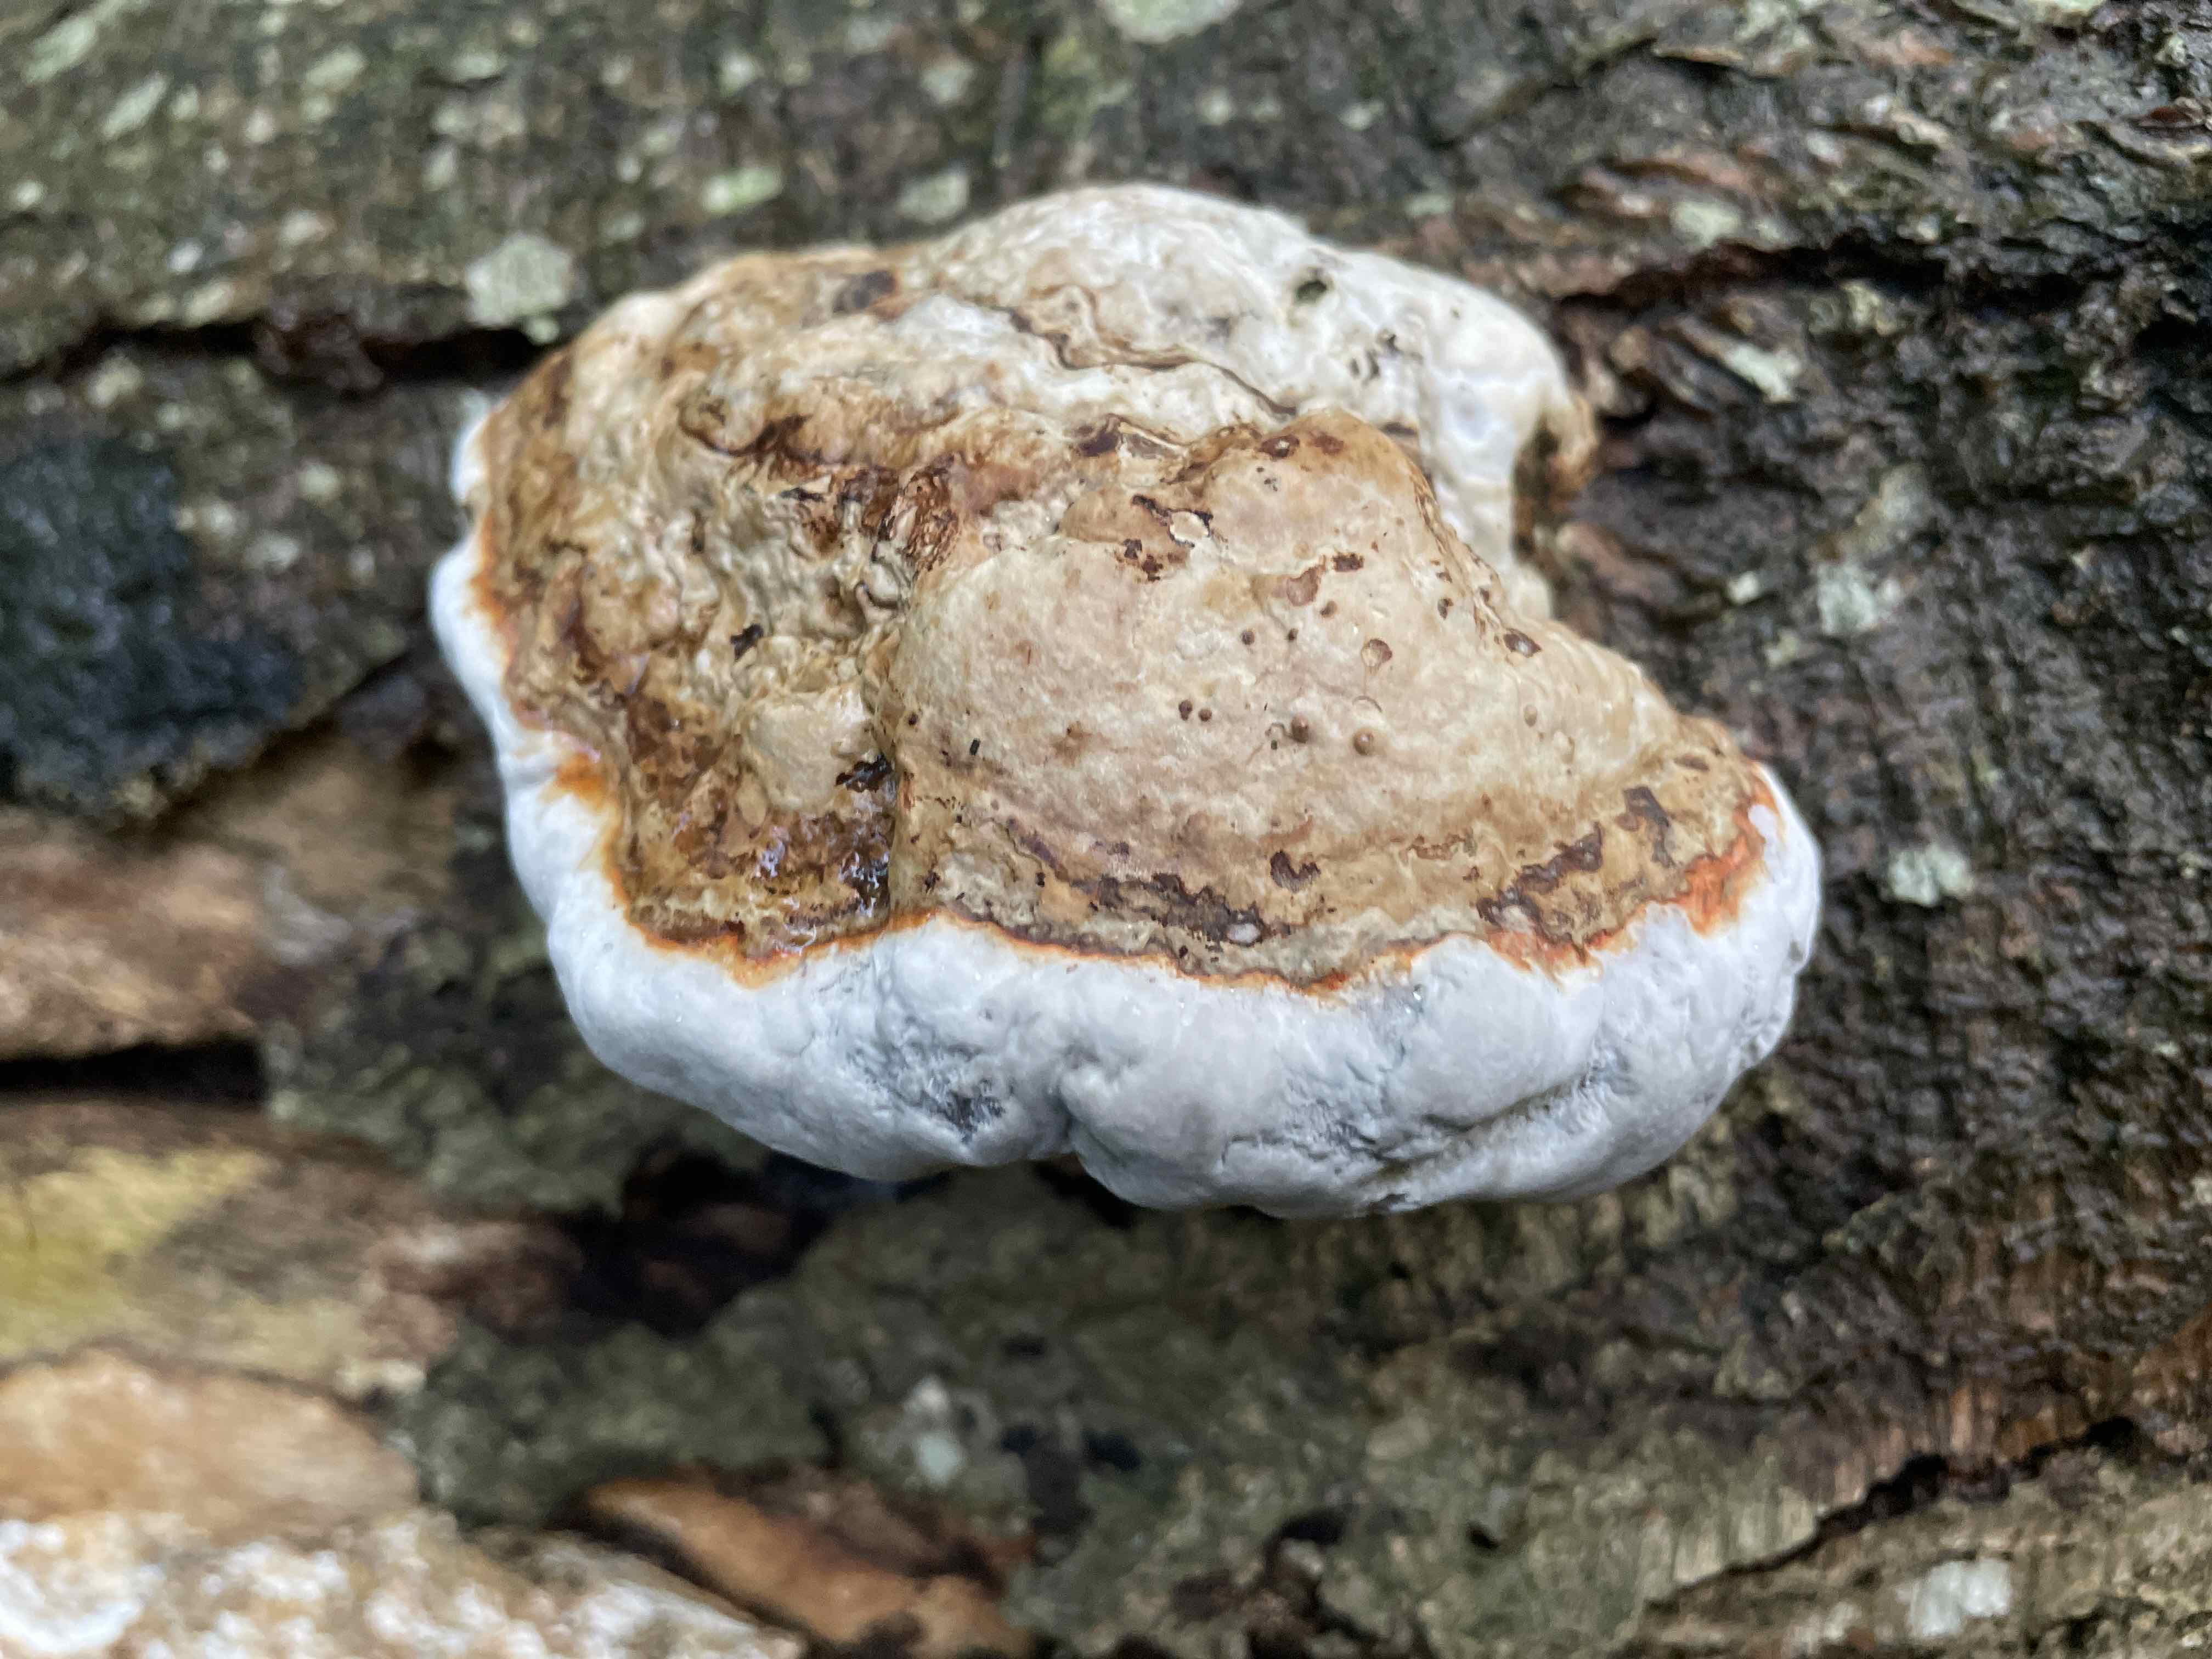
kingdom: Fungi
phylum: Basidiomycota
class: Agaricomycetes
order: Polyporales
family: Polyporaceae
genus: Fomes
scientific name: Fomes fomentarius
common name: tøndersvamp
